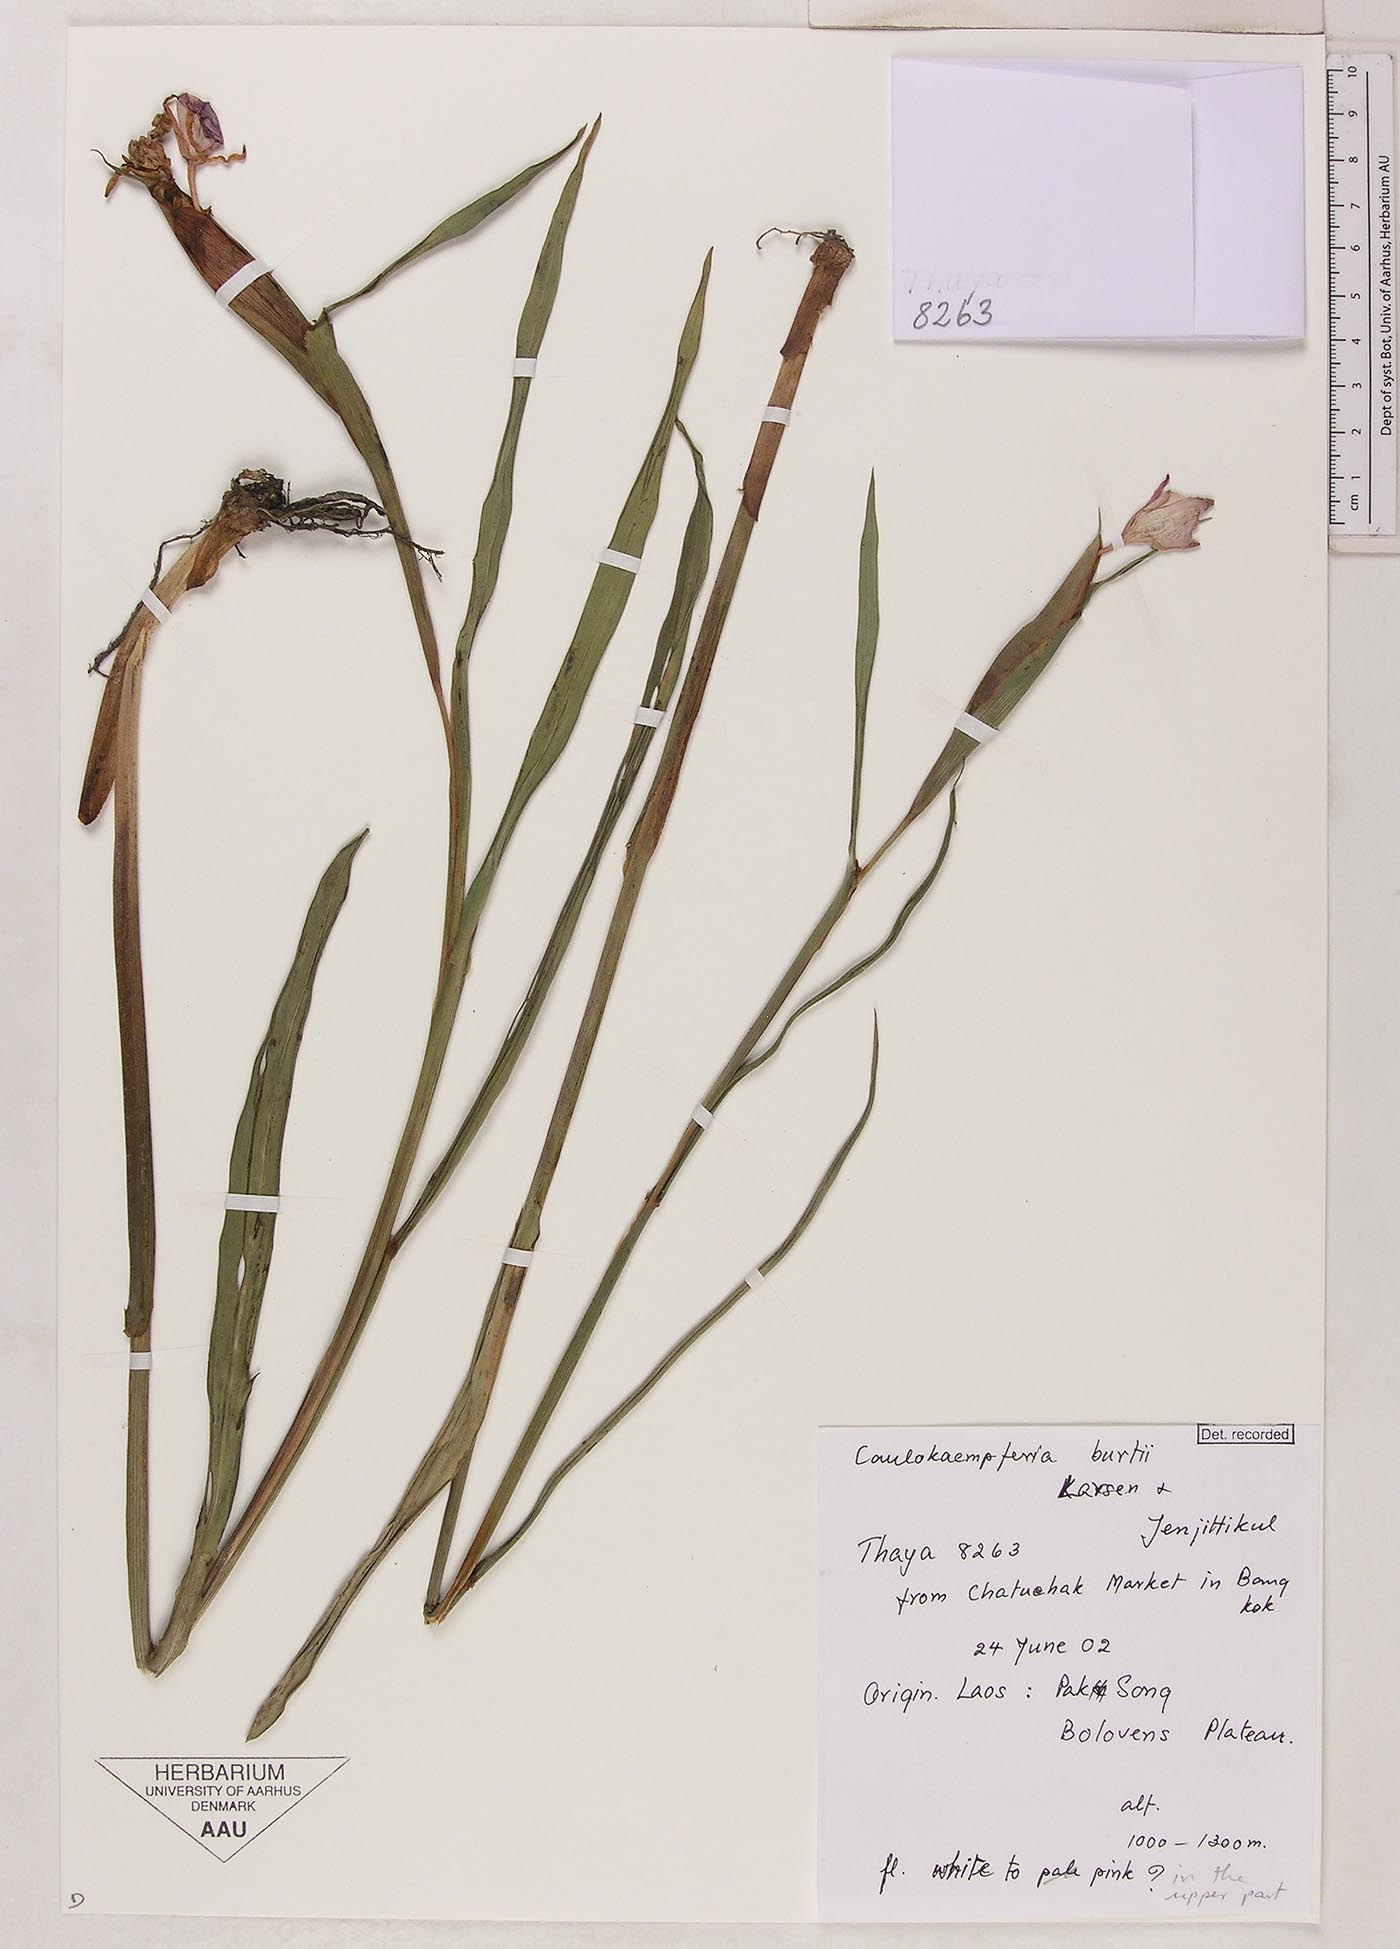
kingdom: Plantae
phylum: Tracheophyta
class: Liliopsida
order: Zingiberales
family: Zingiberaceae
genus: Boesenbergia
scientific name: Boesenbergia burttii
